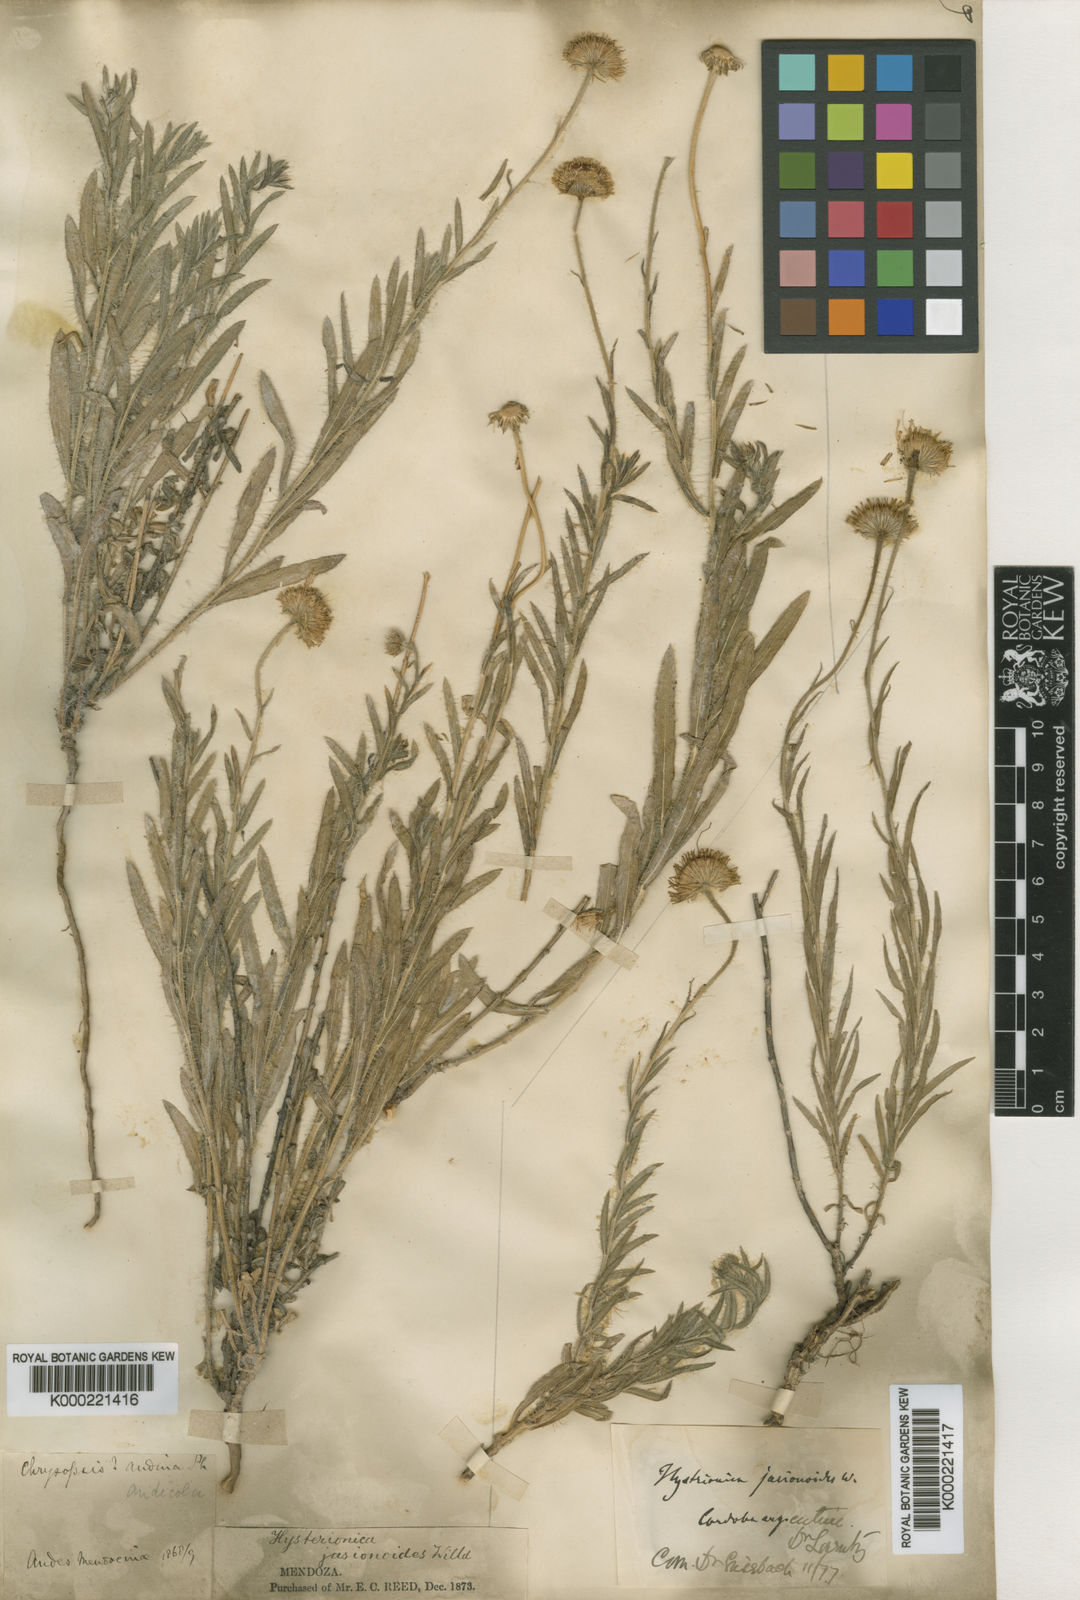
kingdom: Plantae
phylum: Tracheophyta
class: Magnoliopsida
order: Asterales
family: Asteraceae
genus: Hysterionica
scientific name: Hysterionica jasionoides
